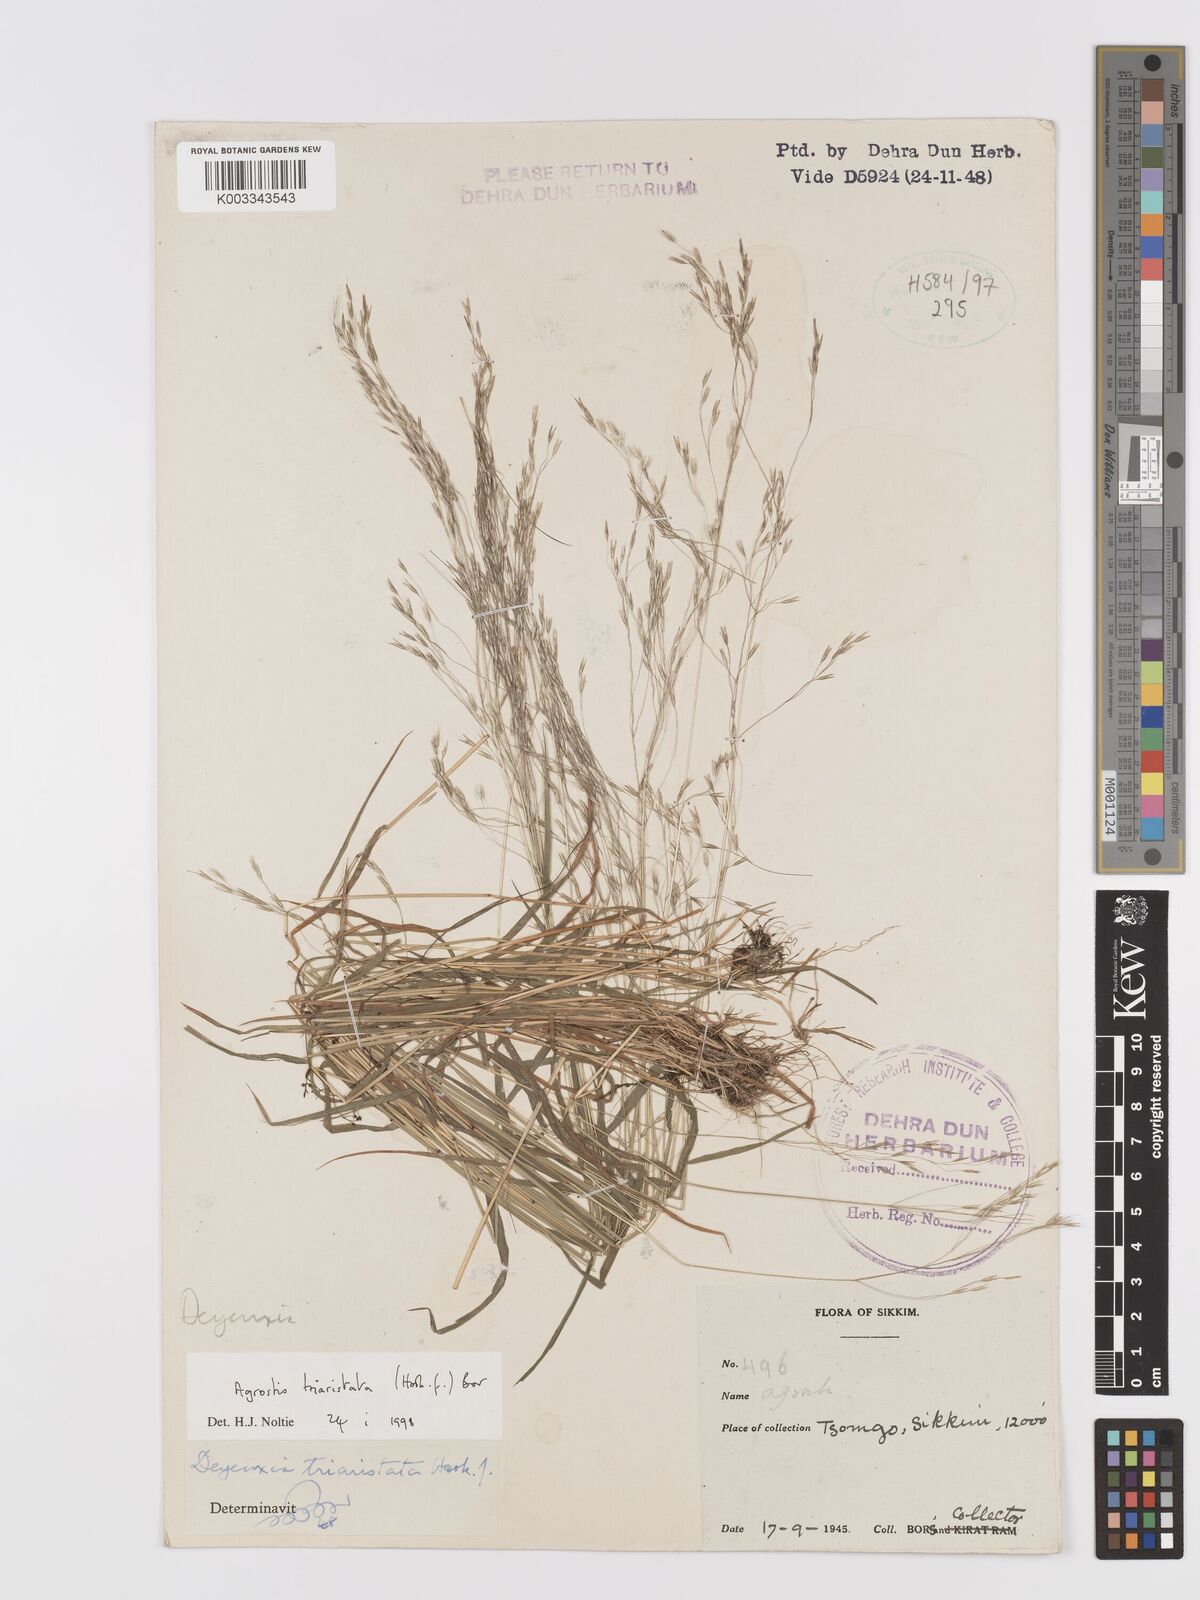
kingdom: Plantae
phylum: Tracheophyta
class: Liliopsida
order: Poales
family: Poaceae
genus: Agrostis
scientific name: Agrostis
